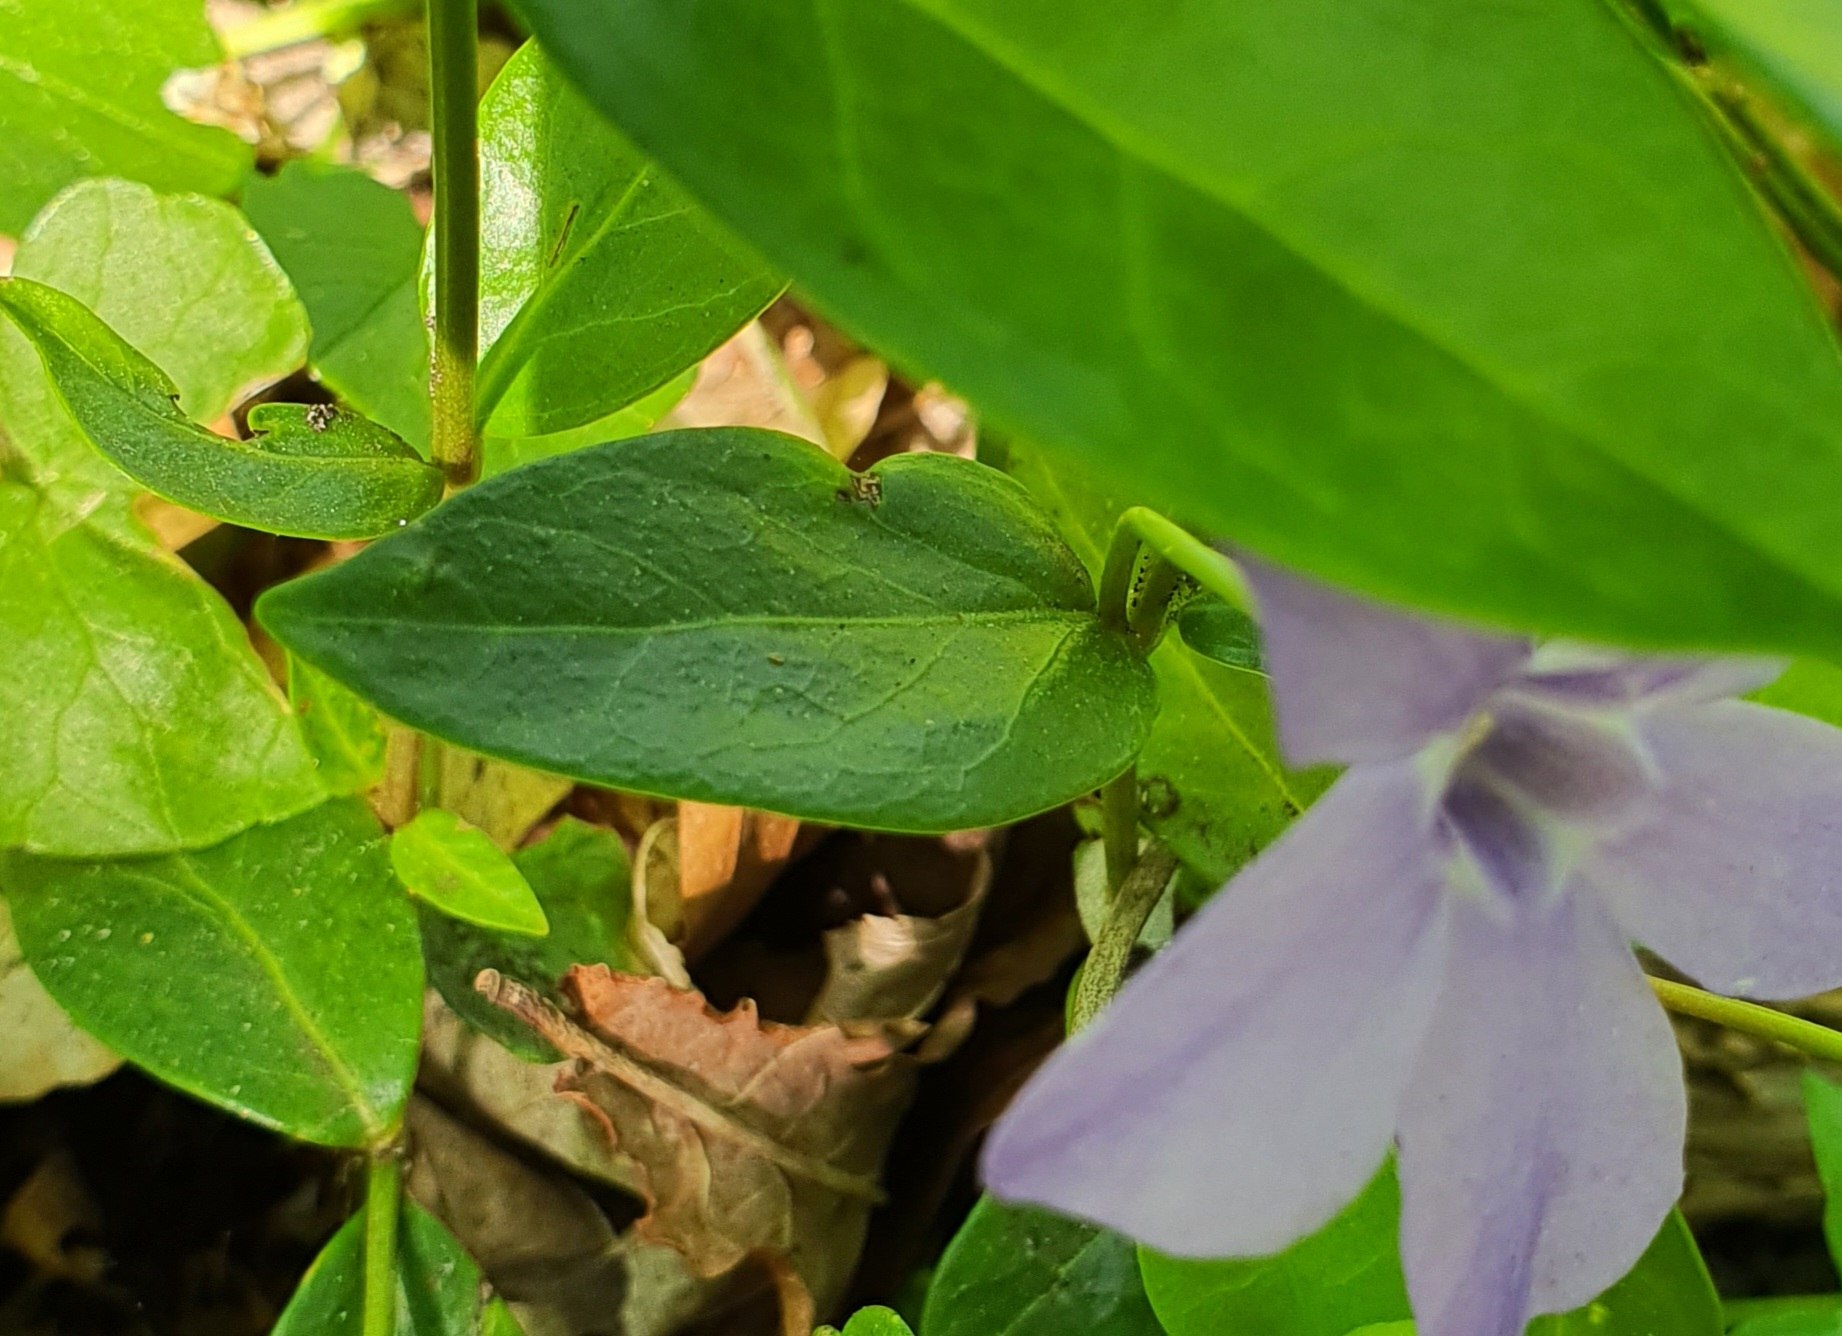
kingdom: Plantae
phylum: Tracheophyta
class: Magnoliopsida
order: Gentianales
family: Apocynaceae
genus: Vinca
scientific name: Vinca minor
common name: Liden singrøn
